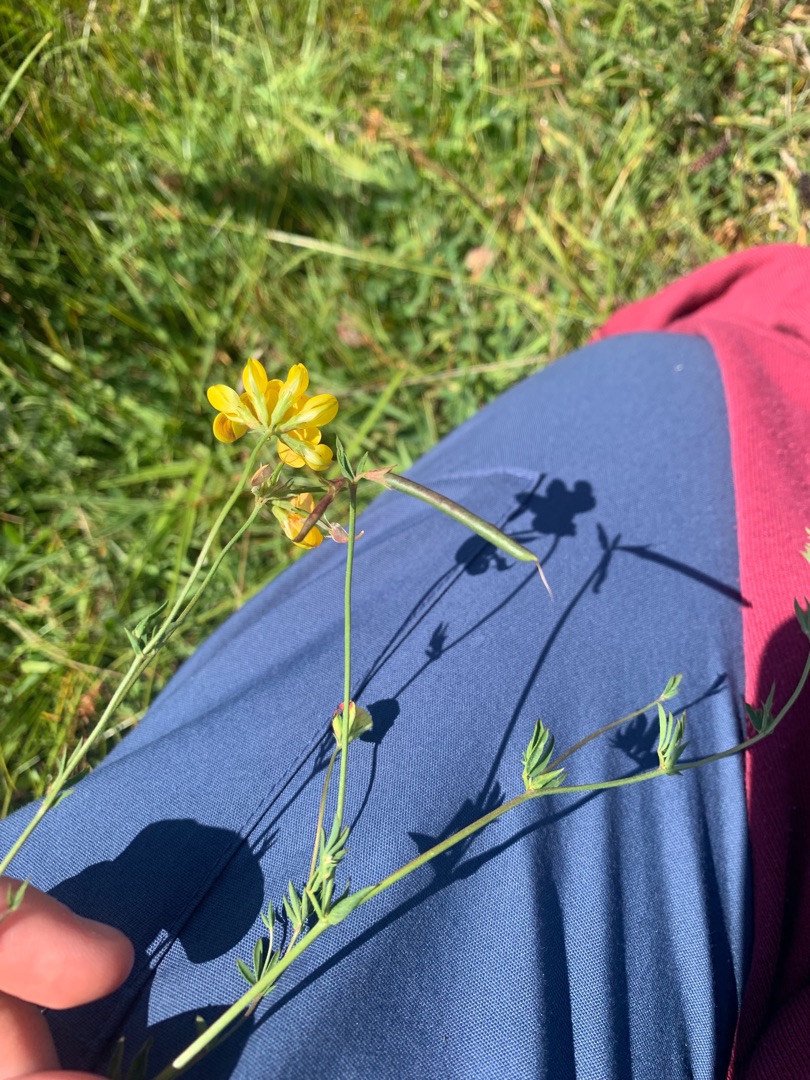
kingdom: Plantae
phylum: Tracheophyta
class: Magnoliopsida
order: Fabales
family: Fabaceae
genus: Lotus
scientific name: Lotus tenuis
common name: Smalbladet kællingetand
